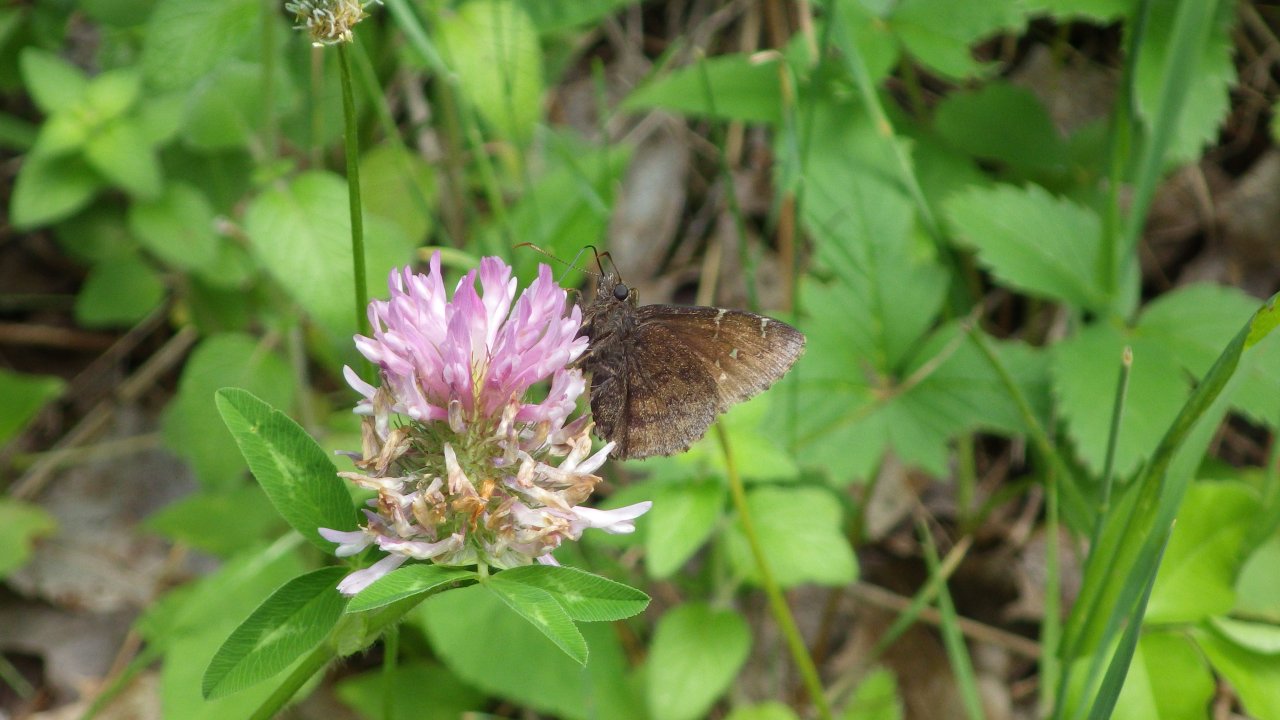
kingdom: Animalia
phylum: Arthropoda
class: Insecta
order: Lepidoptera
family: Hesperiidae
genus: Autochton
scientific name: Autochton
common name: Northern Cloudywing
